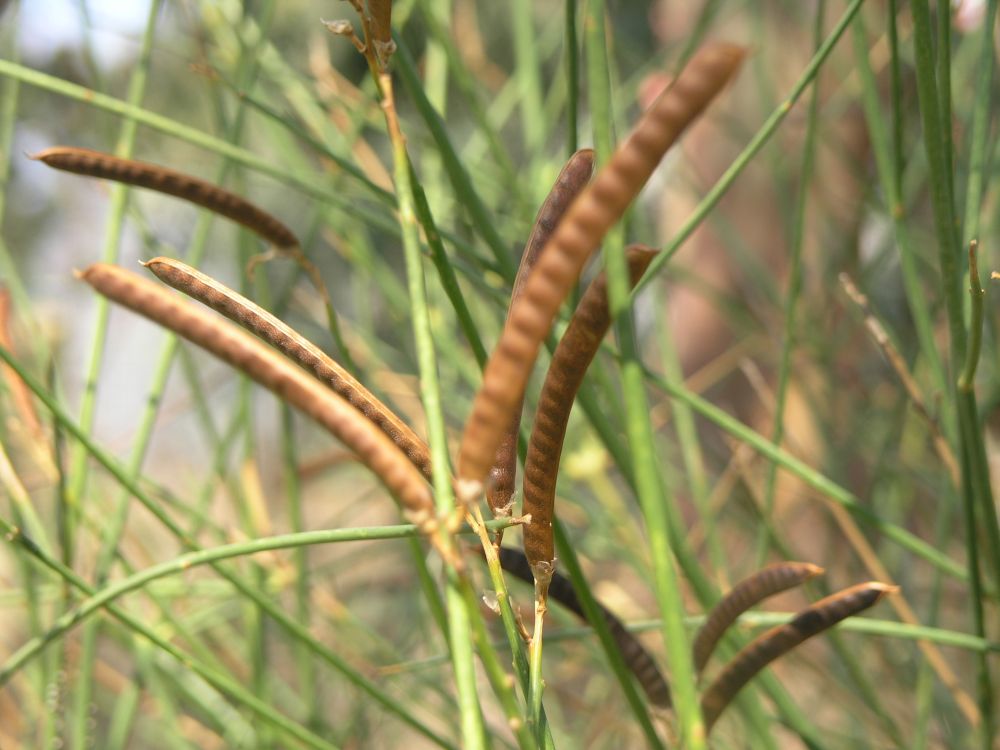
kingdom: Plantae
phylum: Tracheophyta
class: Magnoliopsida
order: Fabales
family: Fabaceae
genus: Spartium
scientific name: Spartium junceum
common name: Spanish broom
